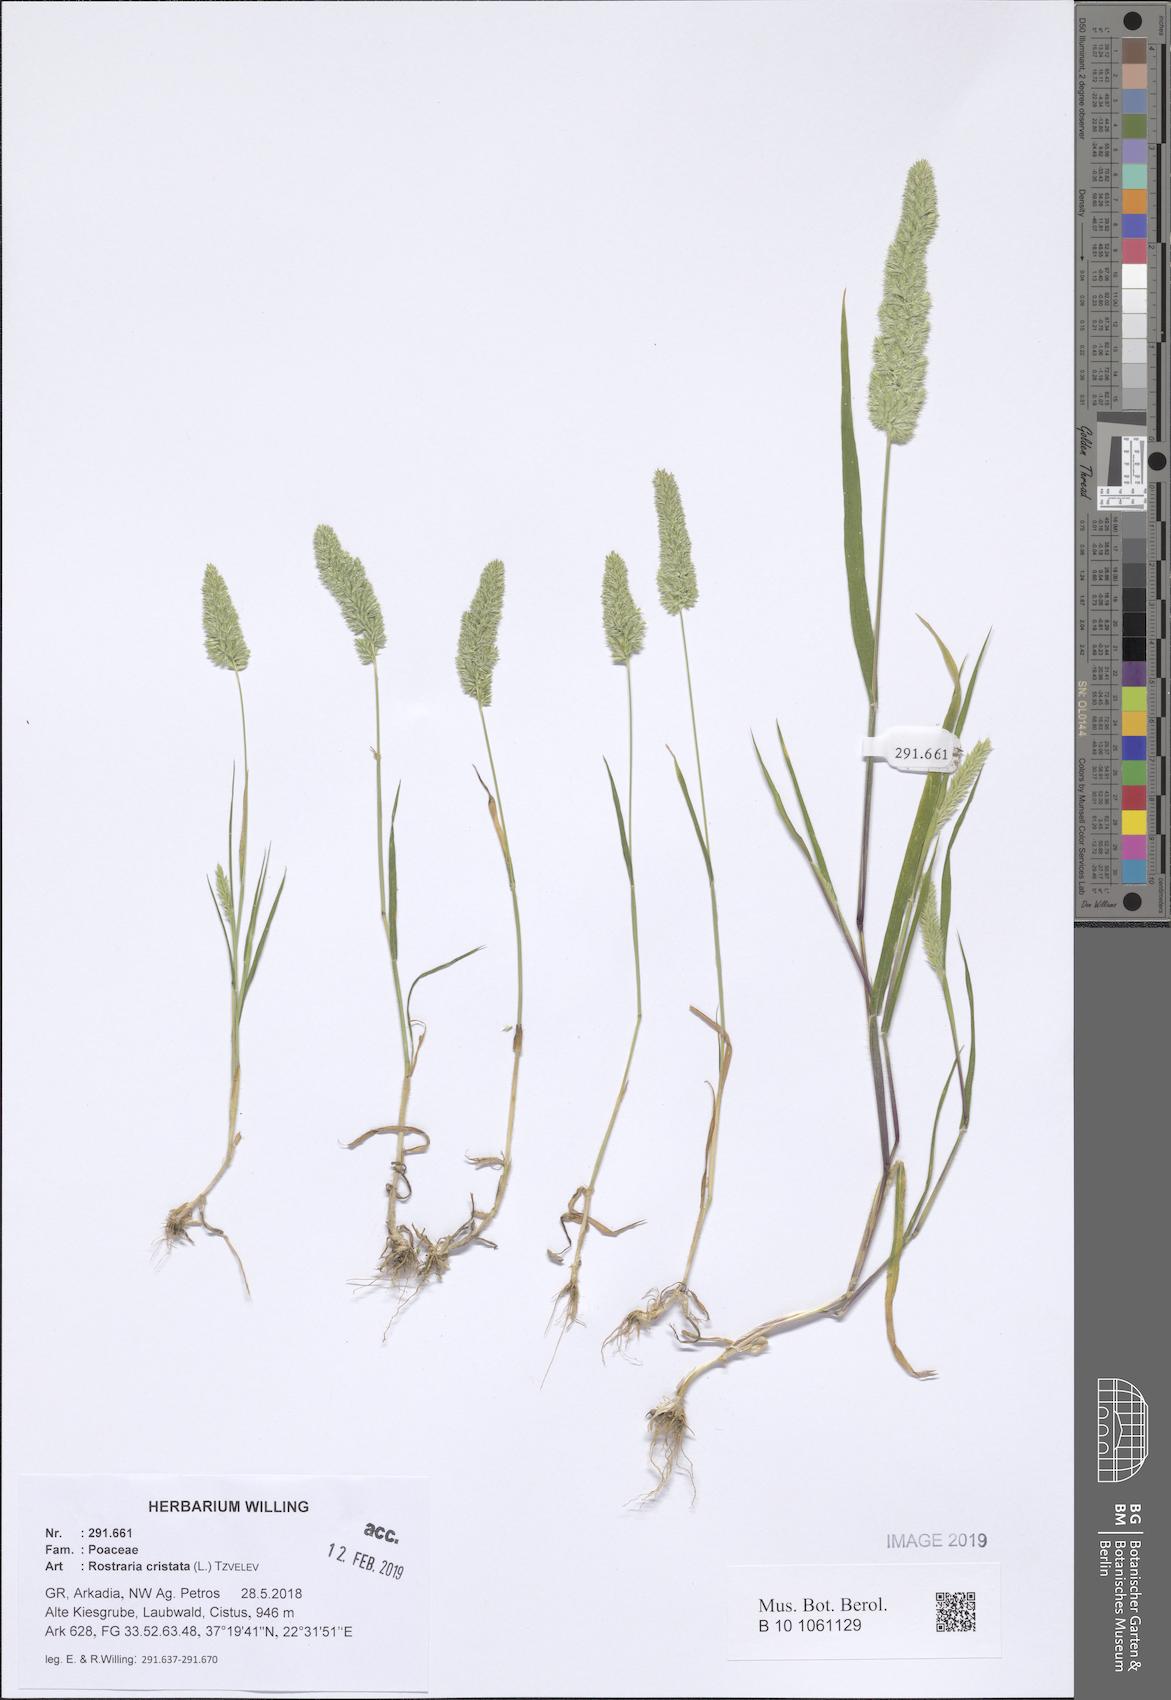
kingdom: Plantae
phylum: Tracheophyta
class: Liliopsida
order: Poales
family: Poaceae
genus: Rostraria
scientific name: Rostraria cristata
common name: Mediterranean hair-grass
